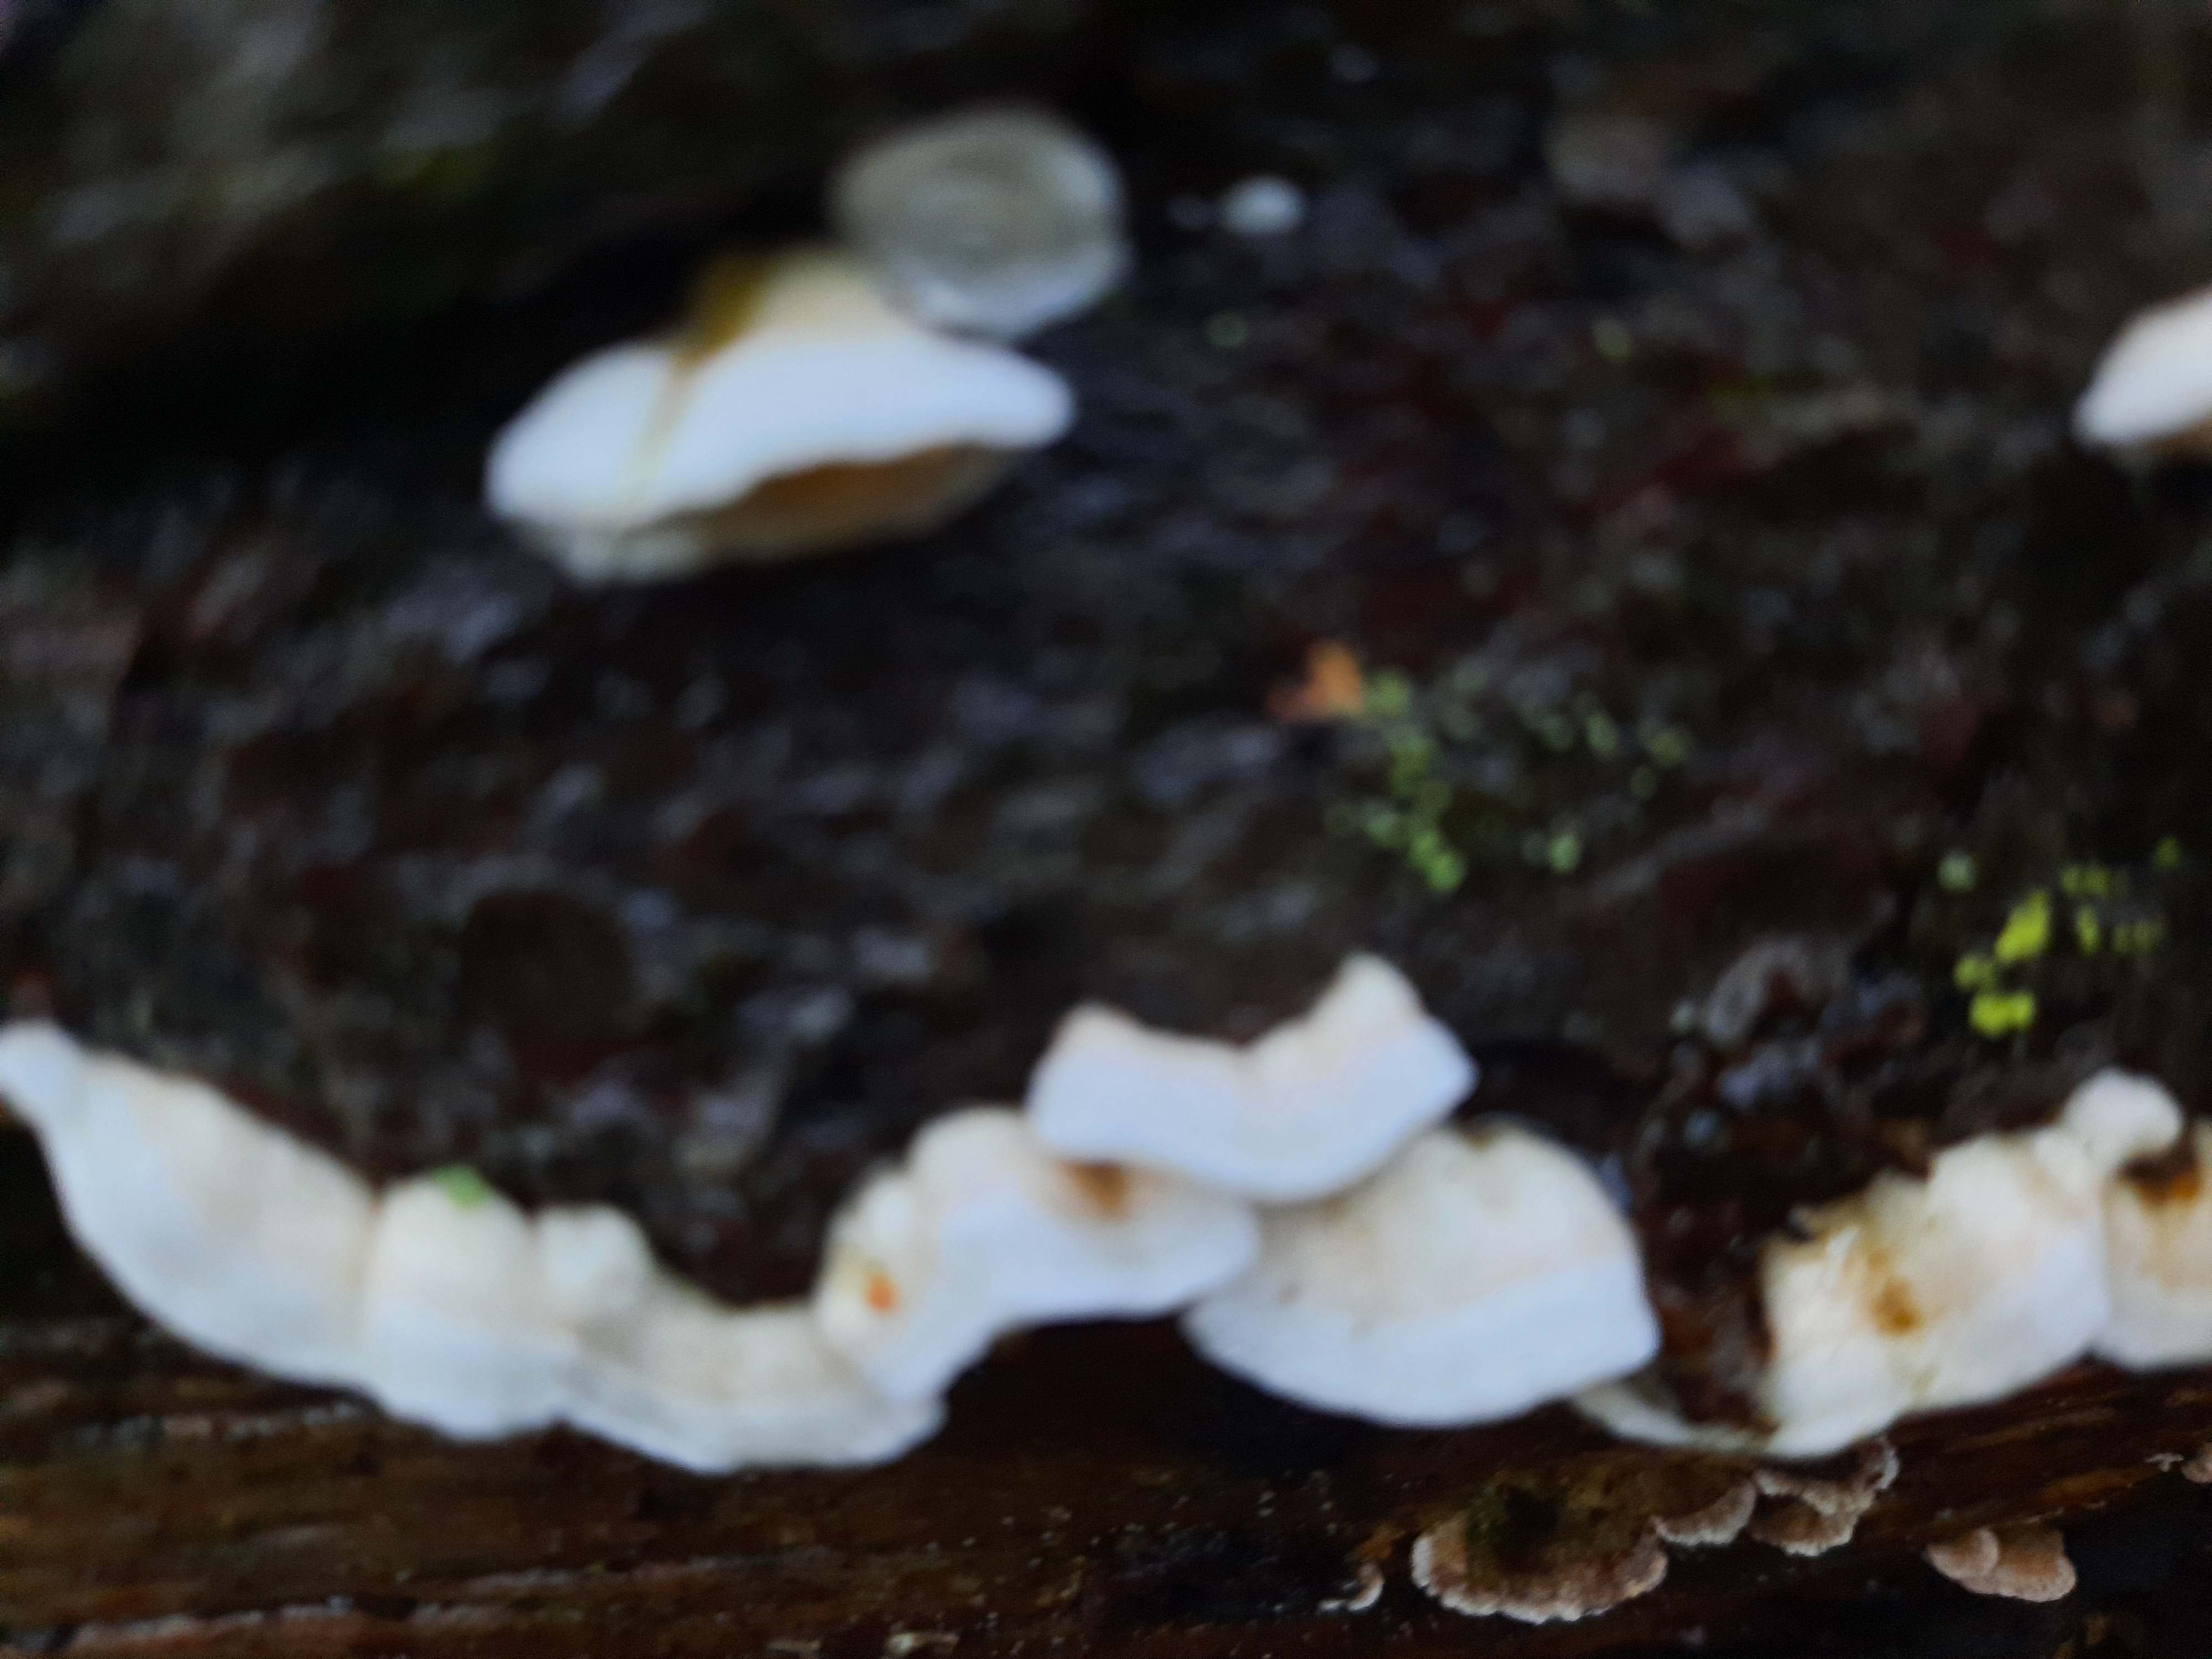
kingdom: Fungi
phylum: Basidiomycota
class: Agaricomycetes
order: Polyporales
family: Incrustoporiaceae
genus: Skeletocutis
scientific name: Skeletocutis amorpha
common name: orange krystalporesvamp
